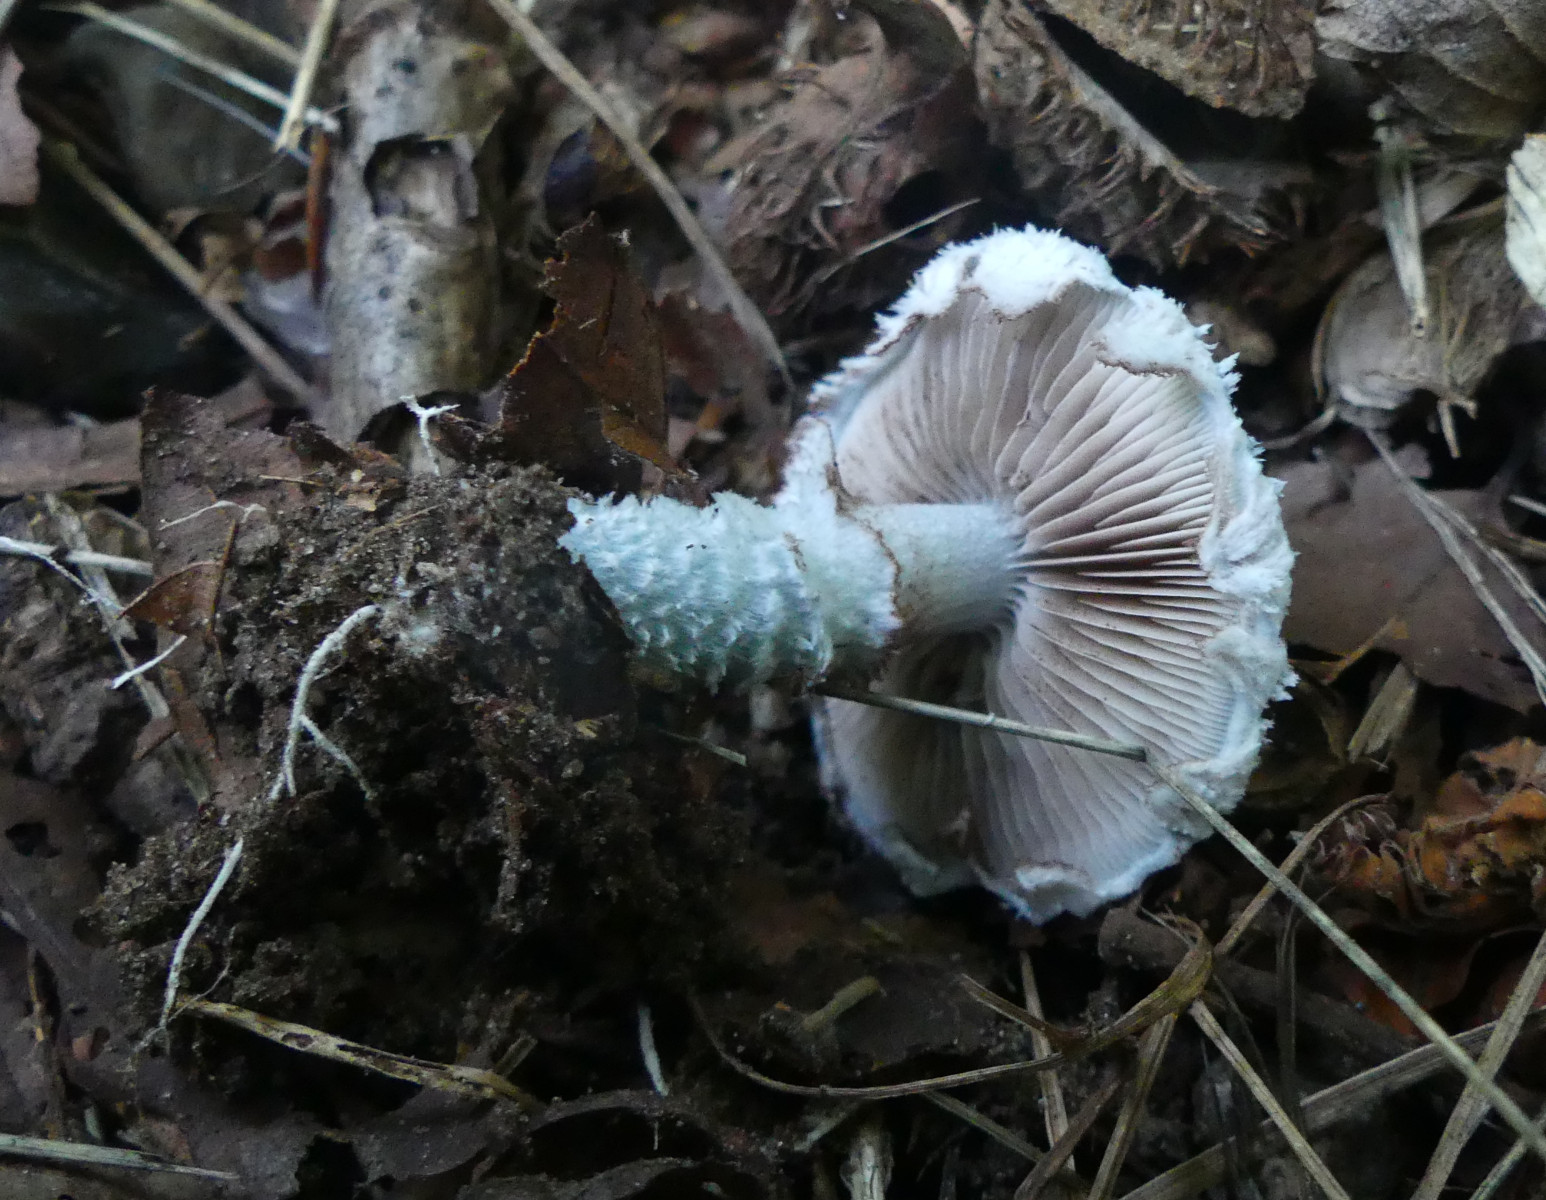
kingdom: Fungi
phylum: Basidiomycota
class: Agaricomycetes
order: Agaricales
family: Strophariaceae
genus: Stropharia
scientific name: Stropharia cyanea
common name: blågrøn bredblad
